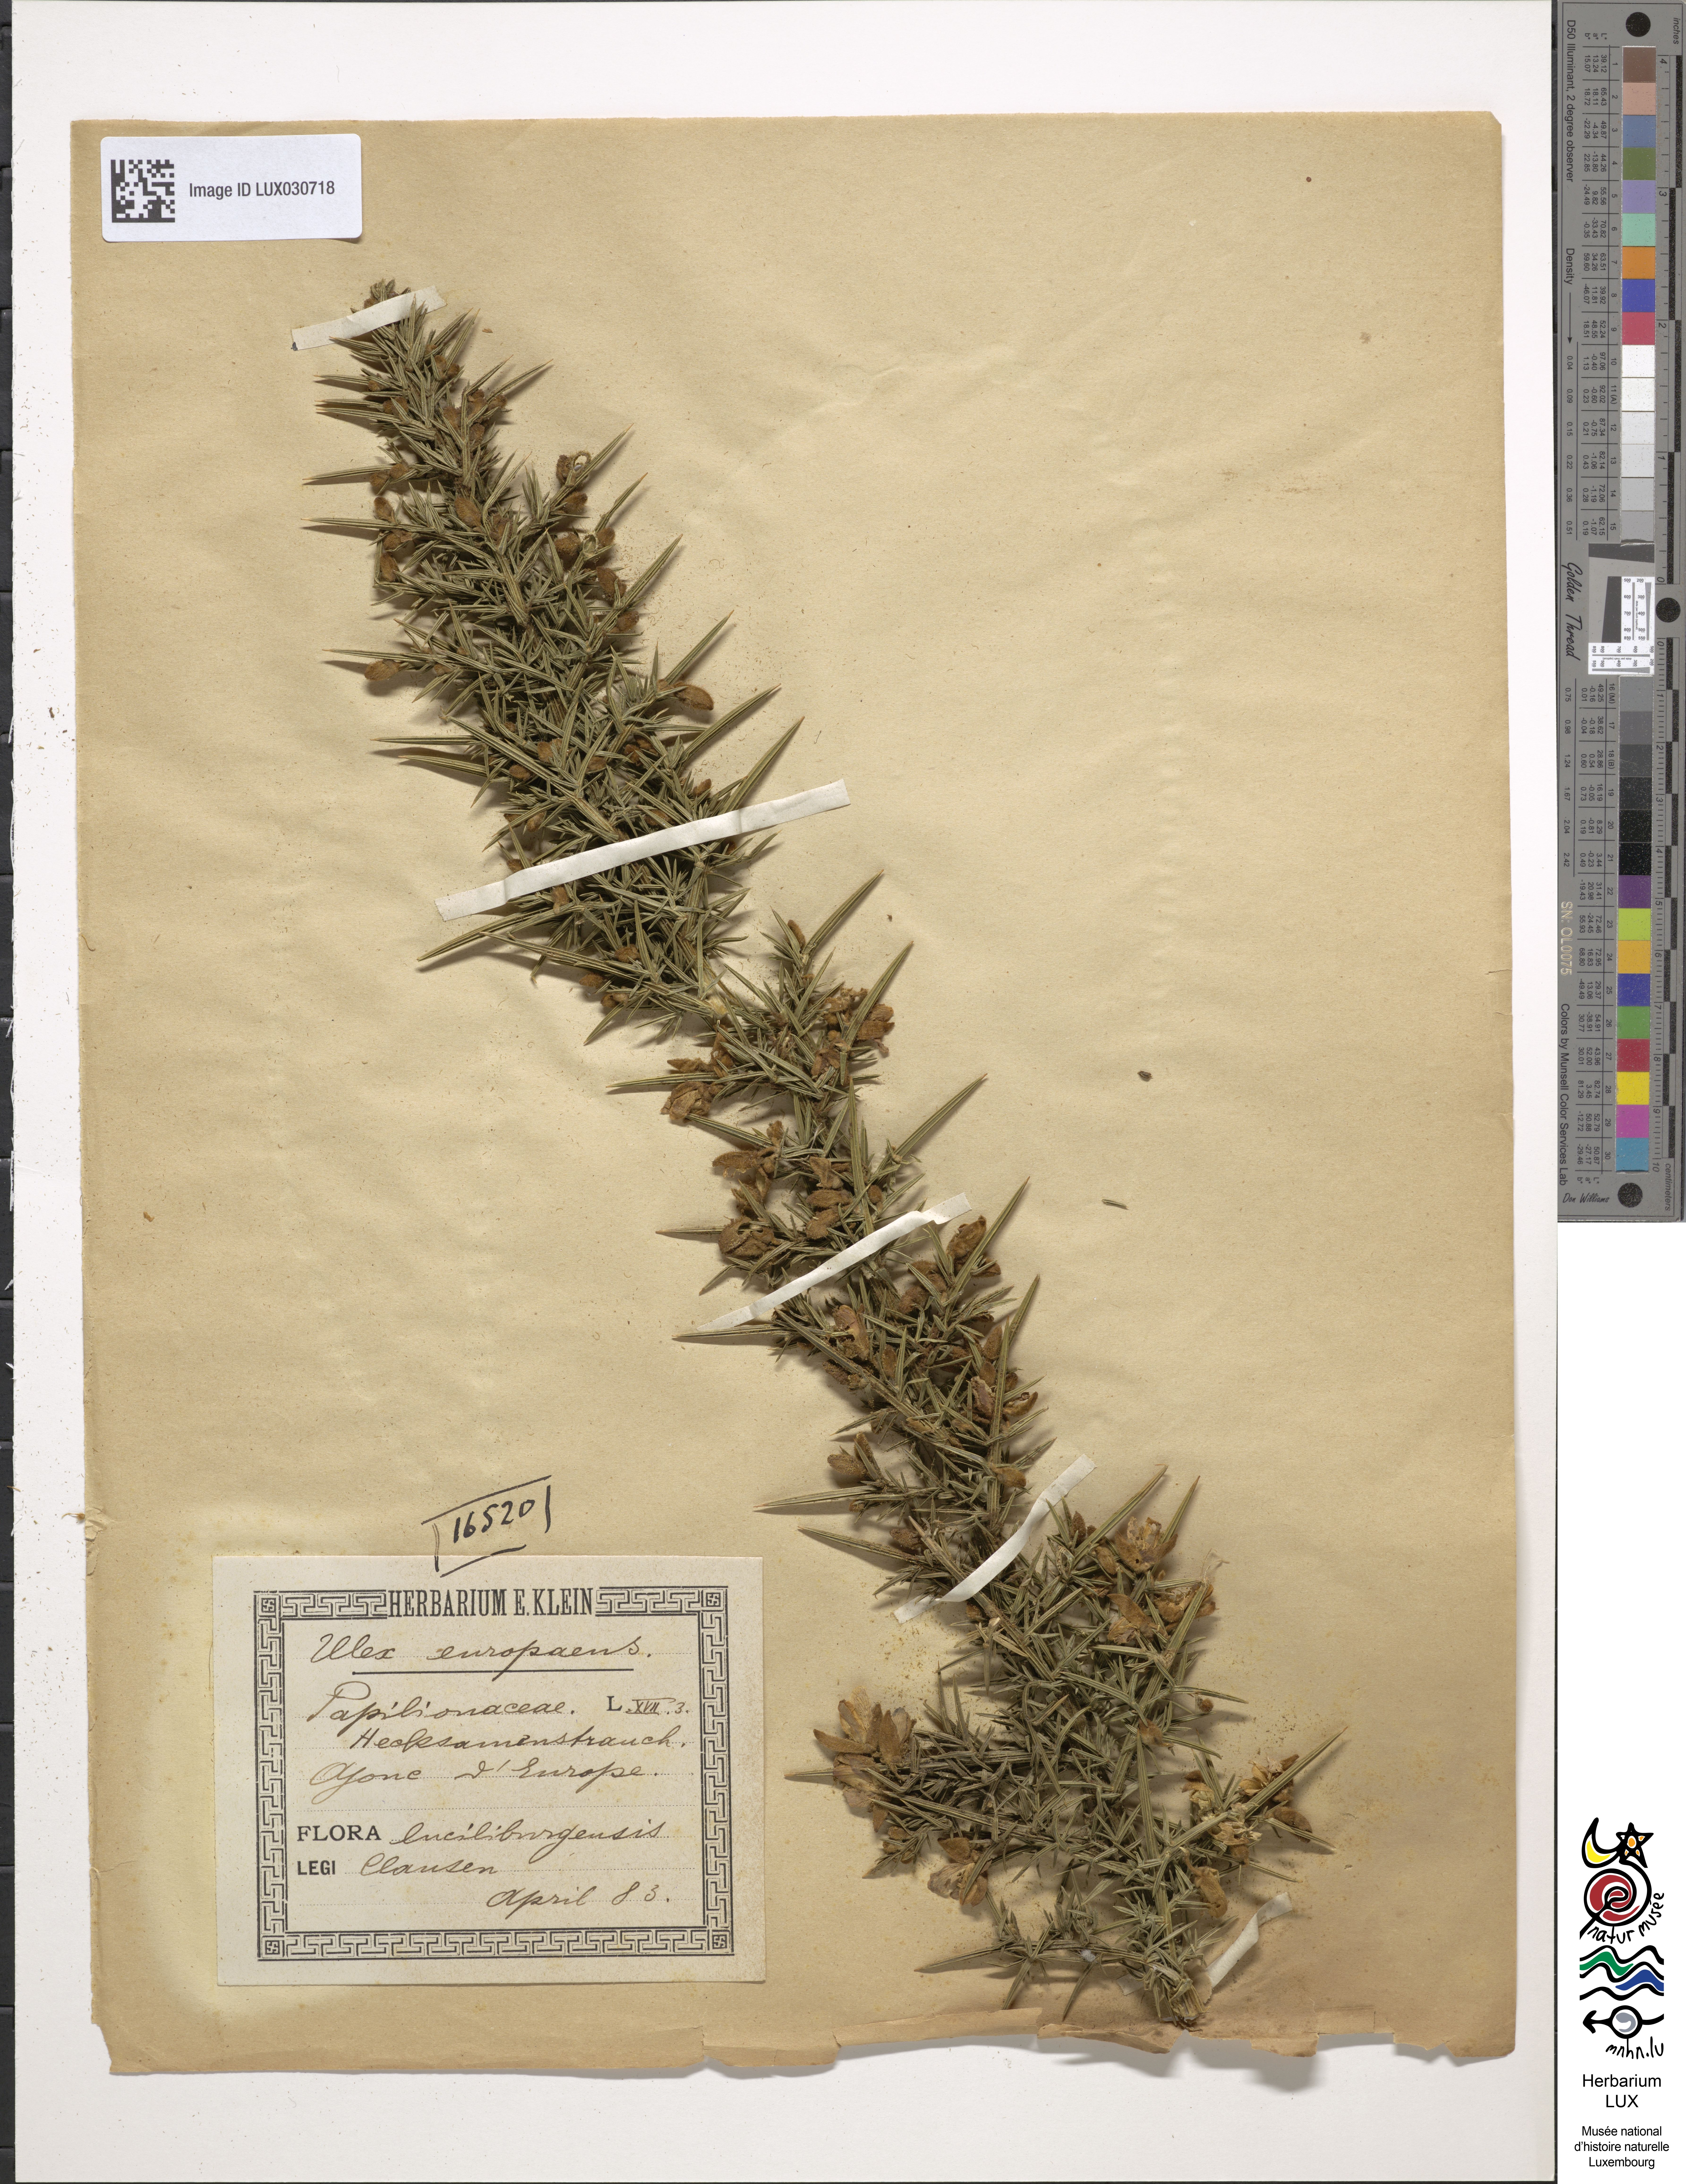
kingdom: Plantae
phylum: Tracheophyta
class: Magnoliopsida
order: Fabales
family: Fabaceae
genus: Ulex
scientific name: Ulex europaeus
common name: Common gorse
